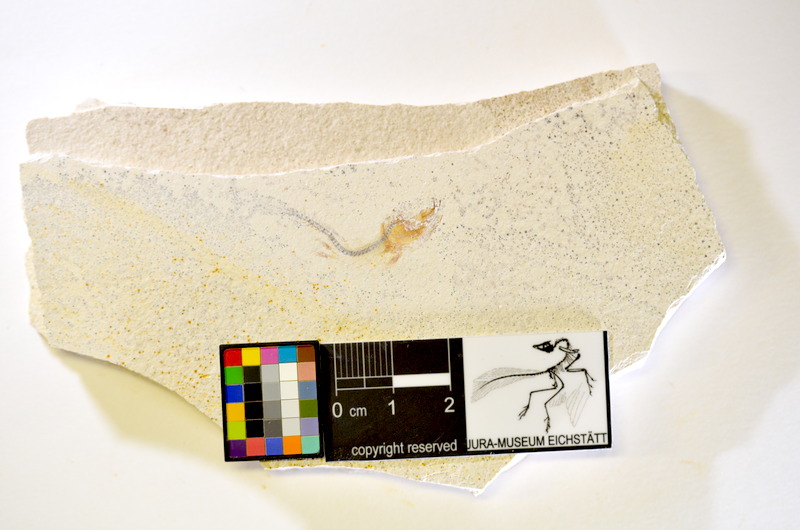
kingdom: Animalia
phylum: Chordata
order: Salmoniformes
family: Orthogonikleithridae
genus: Orthogonikleithrus
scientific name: Orthogonikleithrus hoelli
